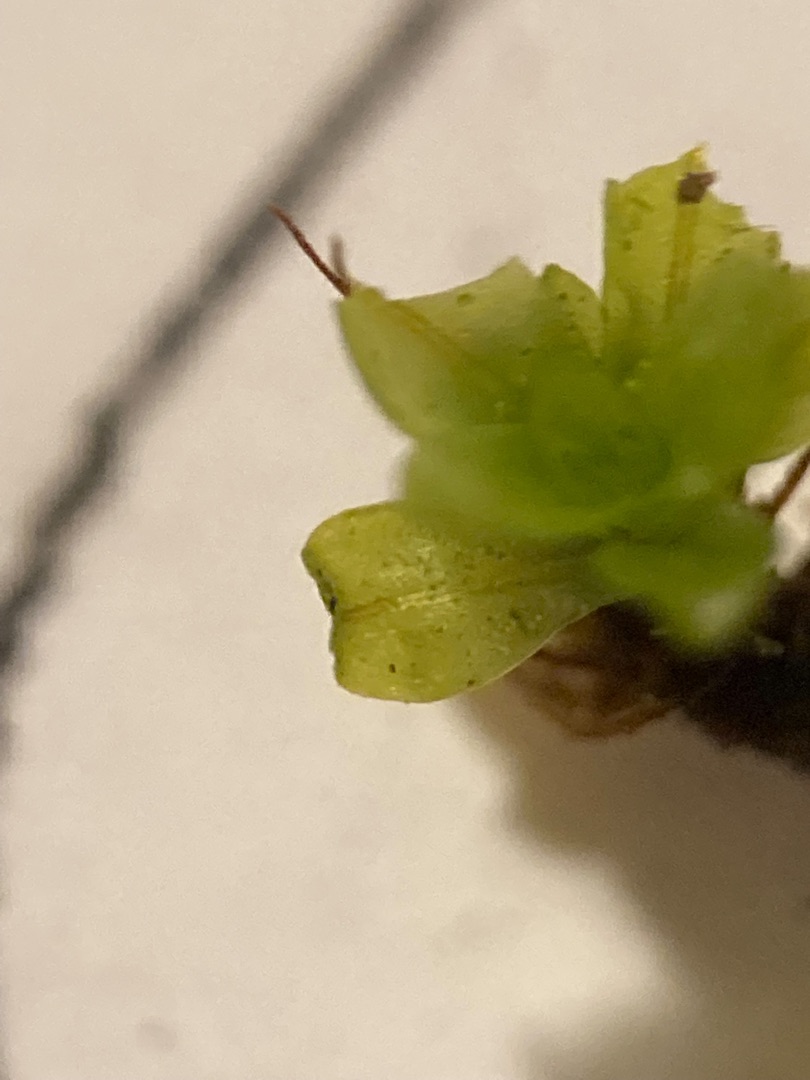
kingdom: Plantae
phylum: Bryophyta
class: Bryopsida
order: Pottiales
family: Pottiaceae
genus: Syntrichia
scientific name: Syntrichia latifolia
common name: Butbladet hårstjerne
